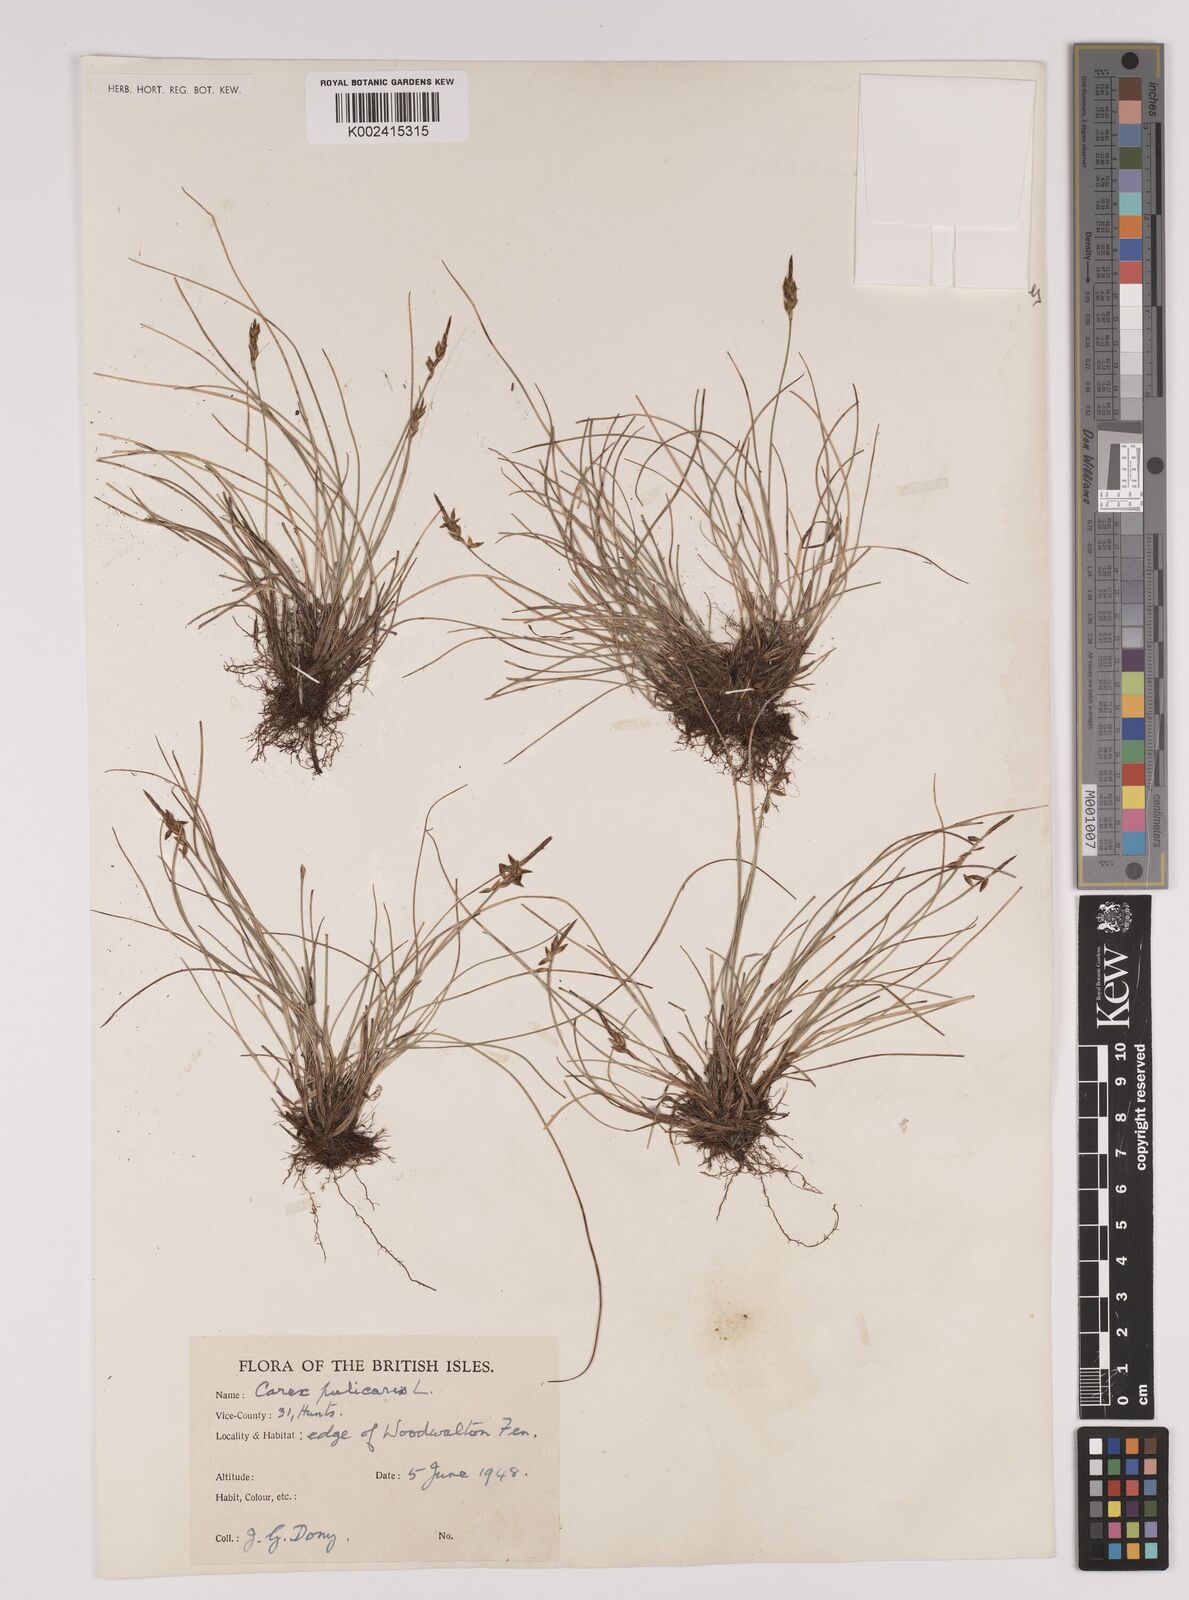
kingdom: Plantae
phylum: Tracheophyta
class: Liliopsida
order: Poales
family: Cyperaceae
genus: Carex
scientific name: Carex pulicaris
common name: Flea sedge
